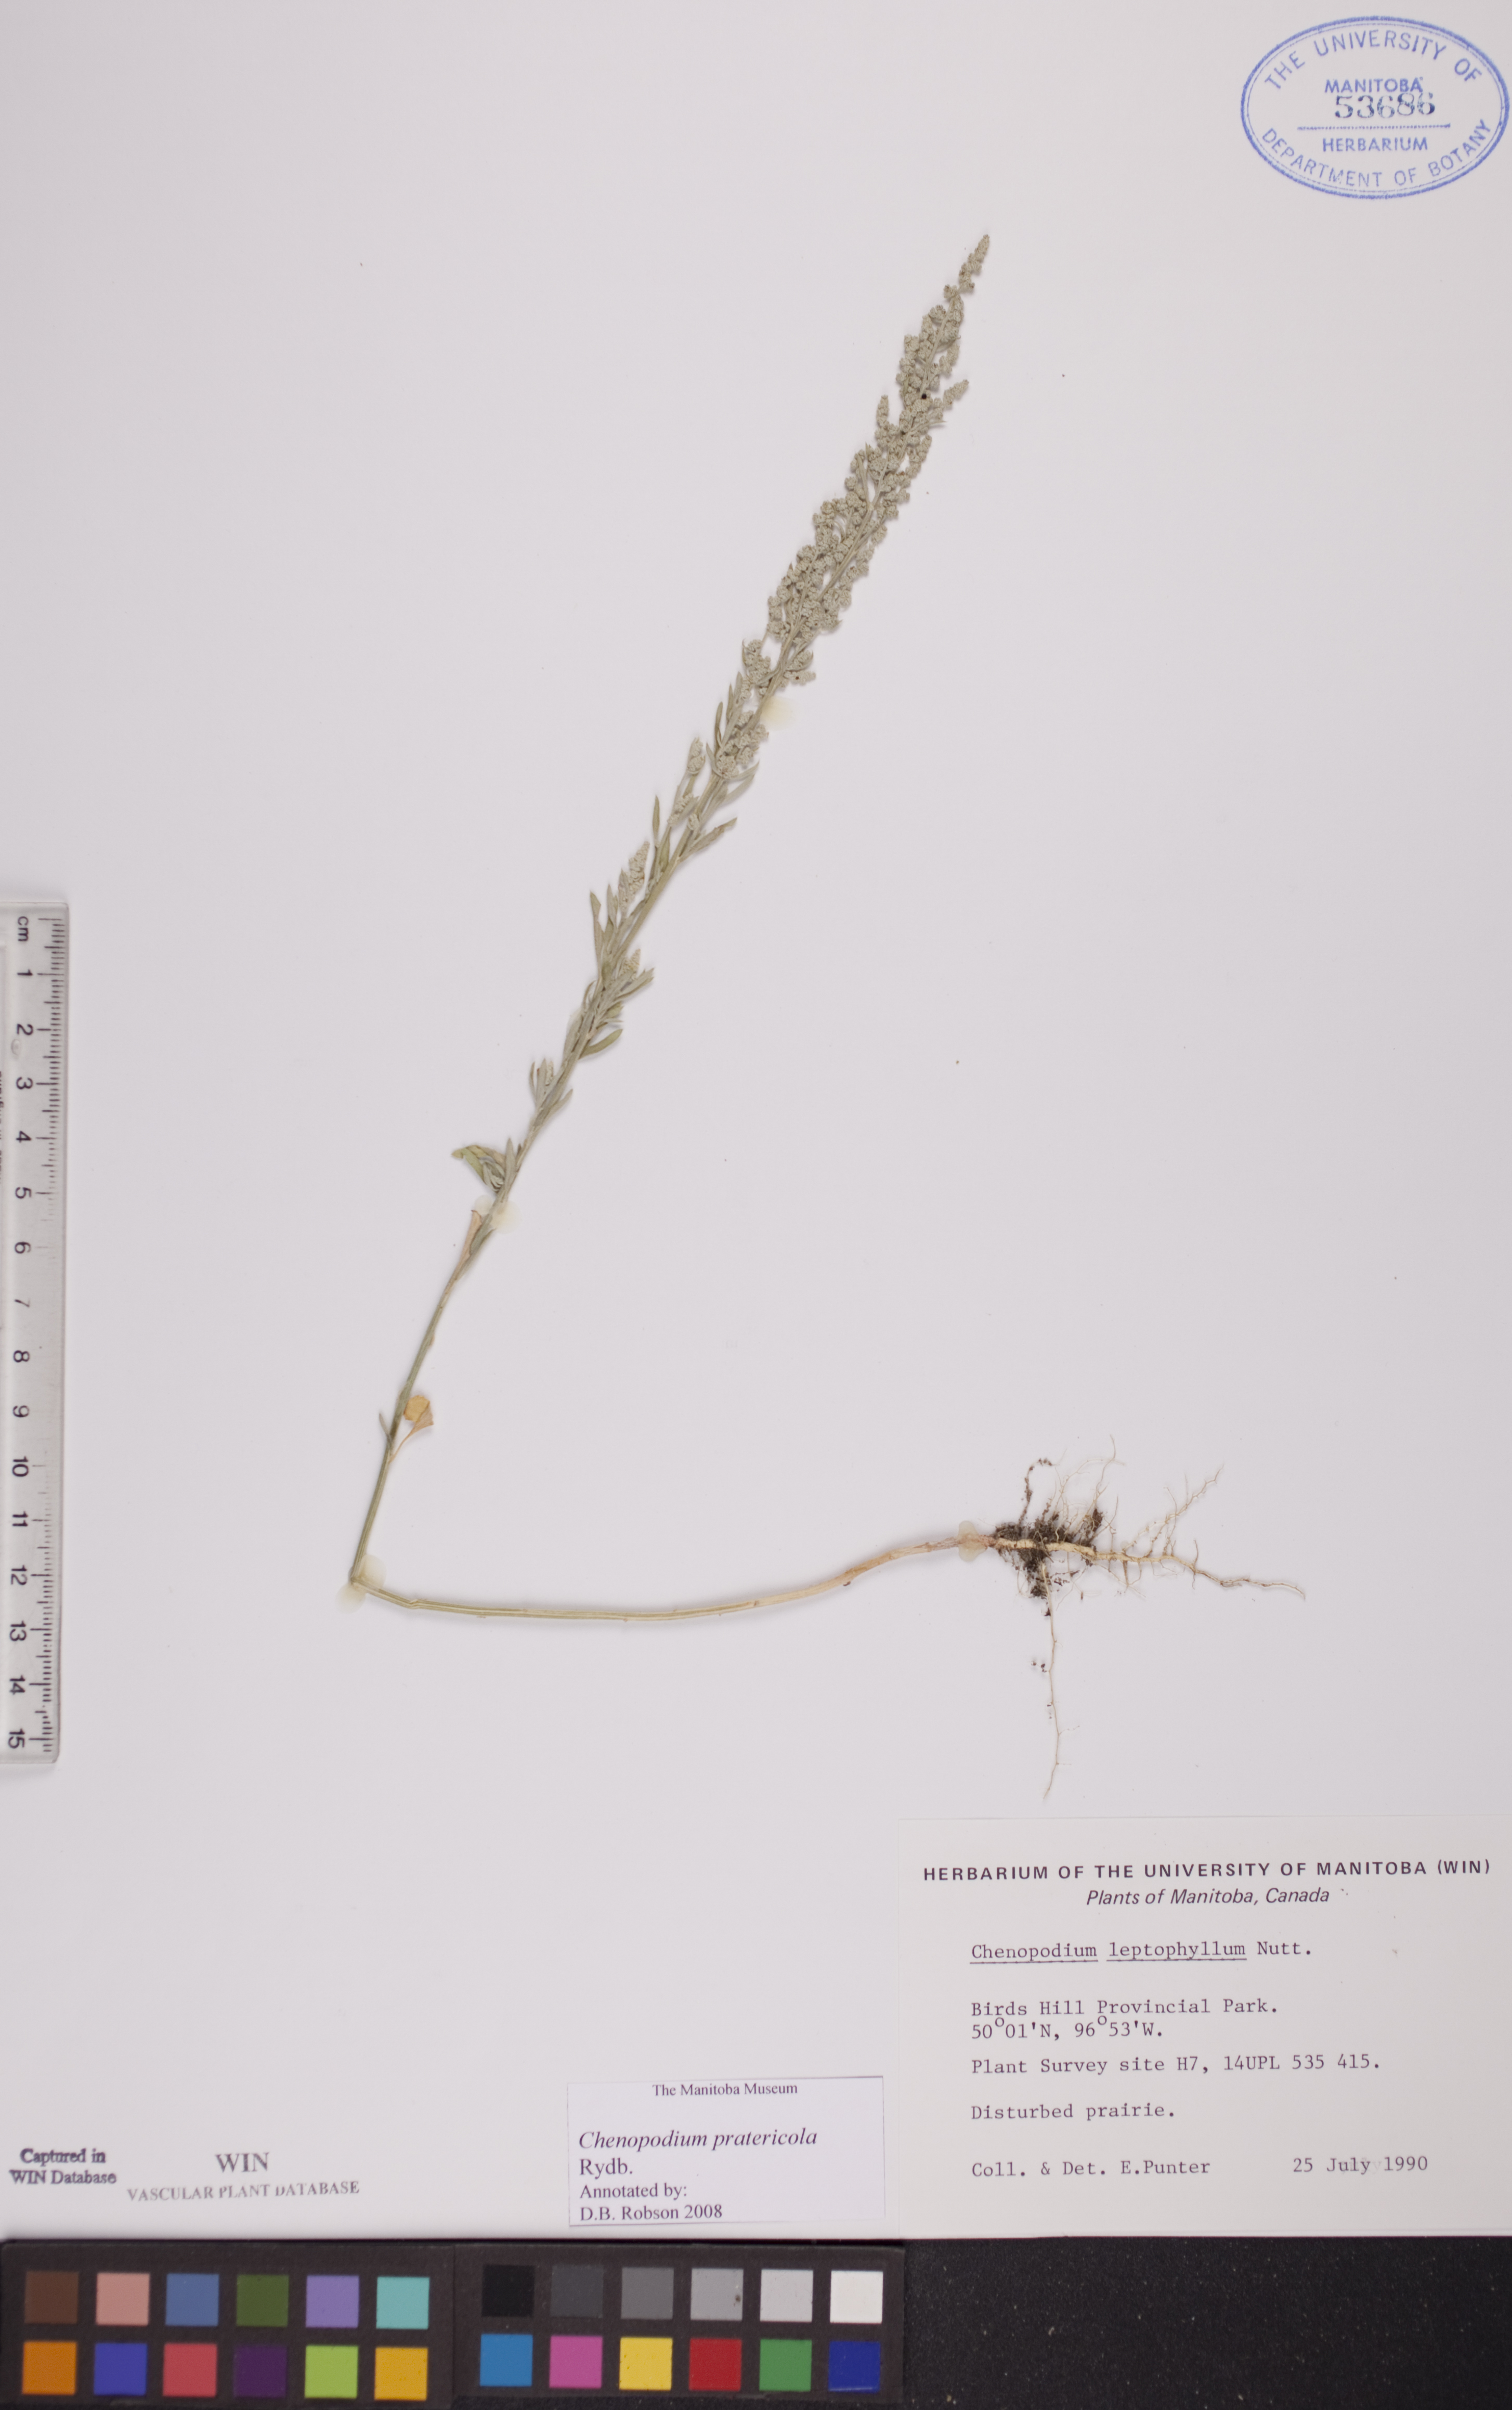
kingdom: Plantae
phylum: Tracheophyta
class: Magnoliopsida
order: Caryophyllales
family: Amaranthaceae
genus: Chenopodium
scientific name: Chenopodium pratericola
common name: Desert goosefoot
